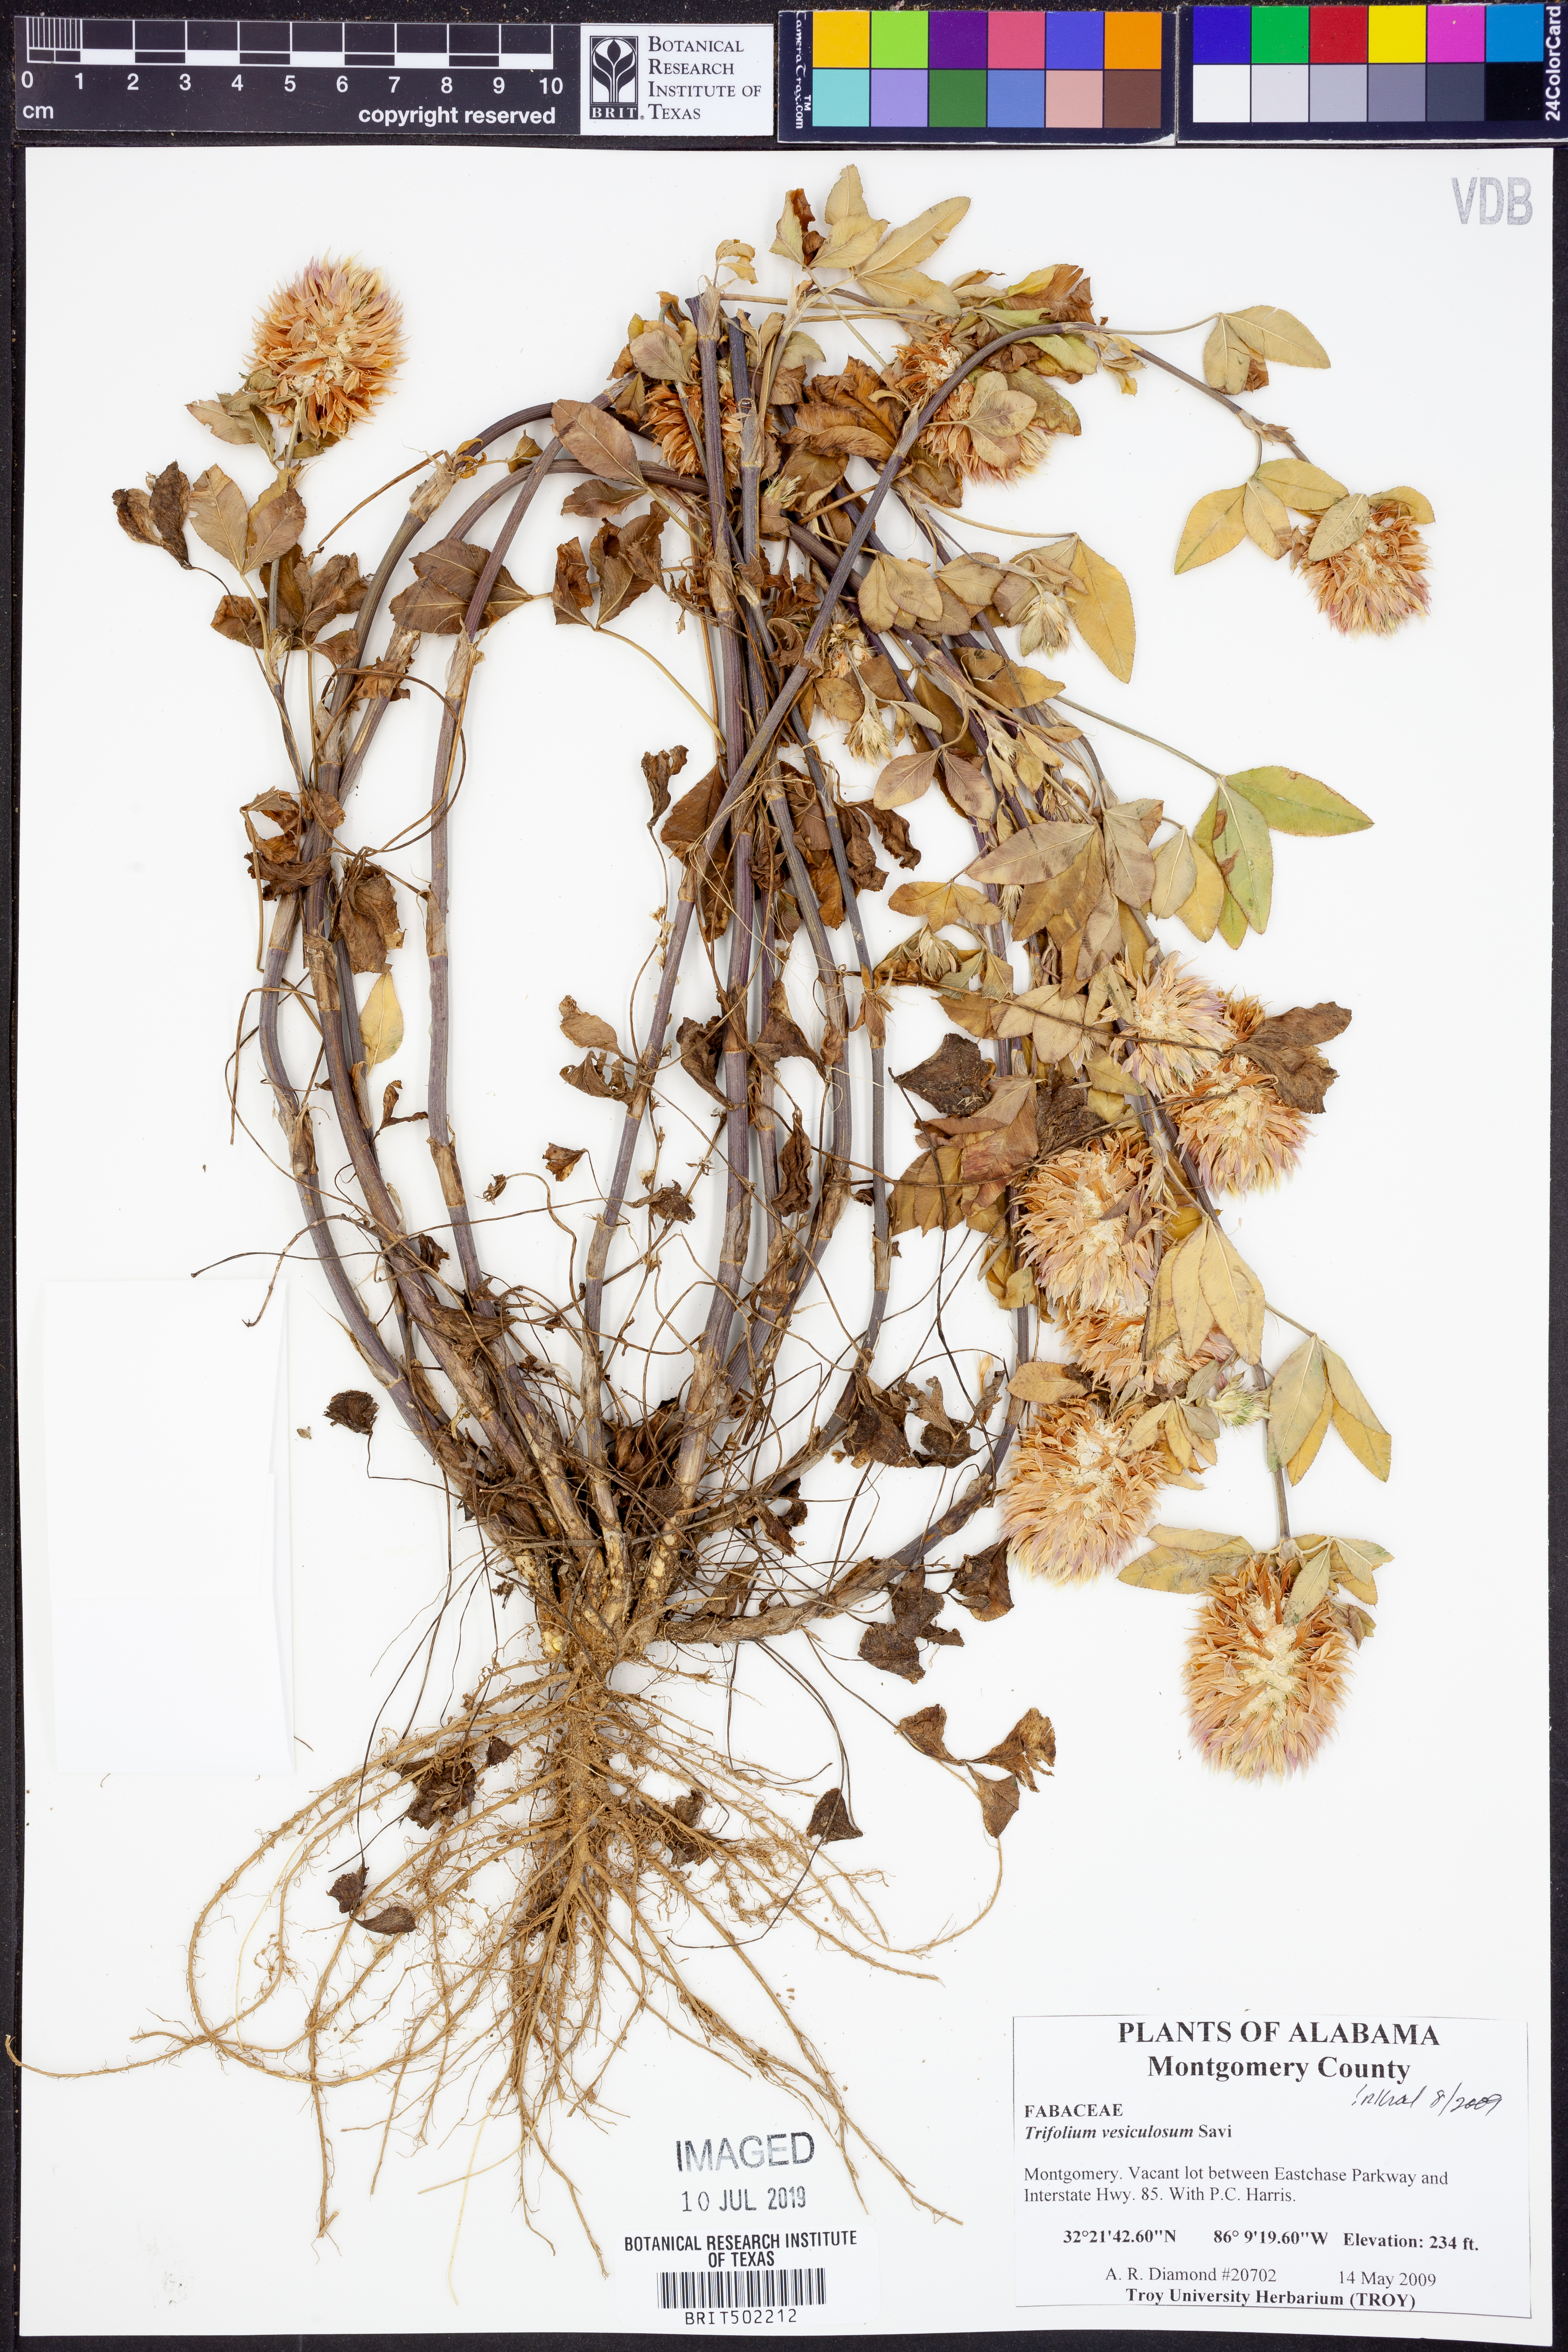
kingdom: Plantae
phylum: Tracheophyta
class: Magnoliopsida
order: Fabales
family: Fabaceae
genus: Trifolium
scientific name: Trifolium vesiculosum
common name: Arrowleaf clover
